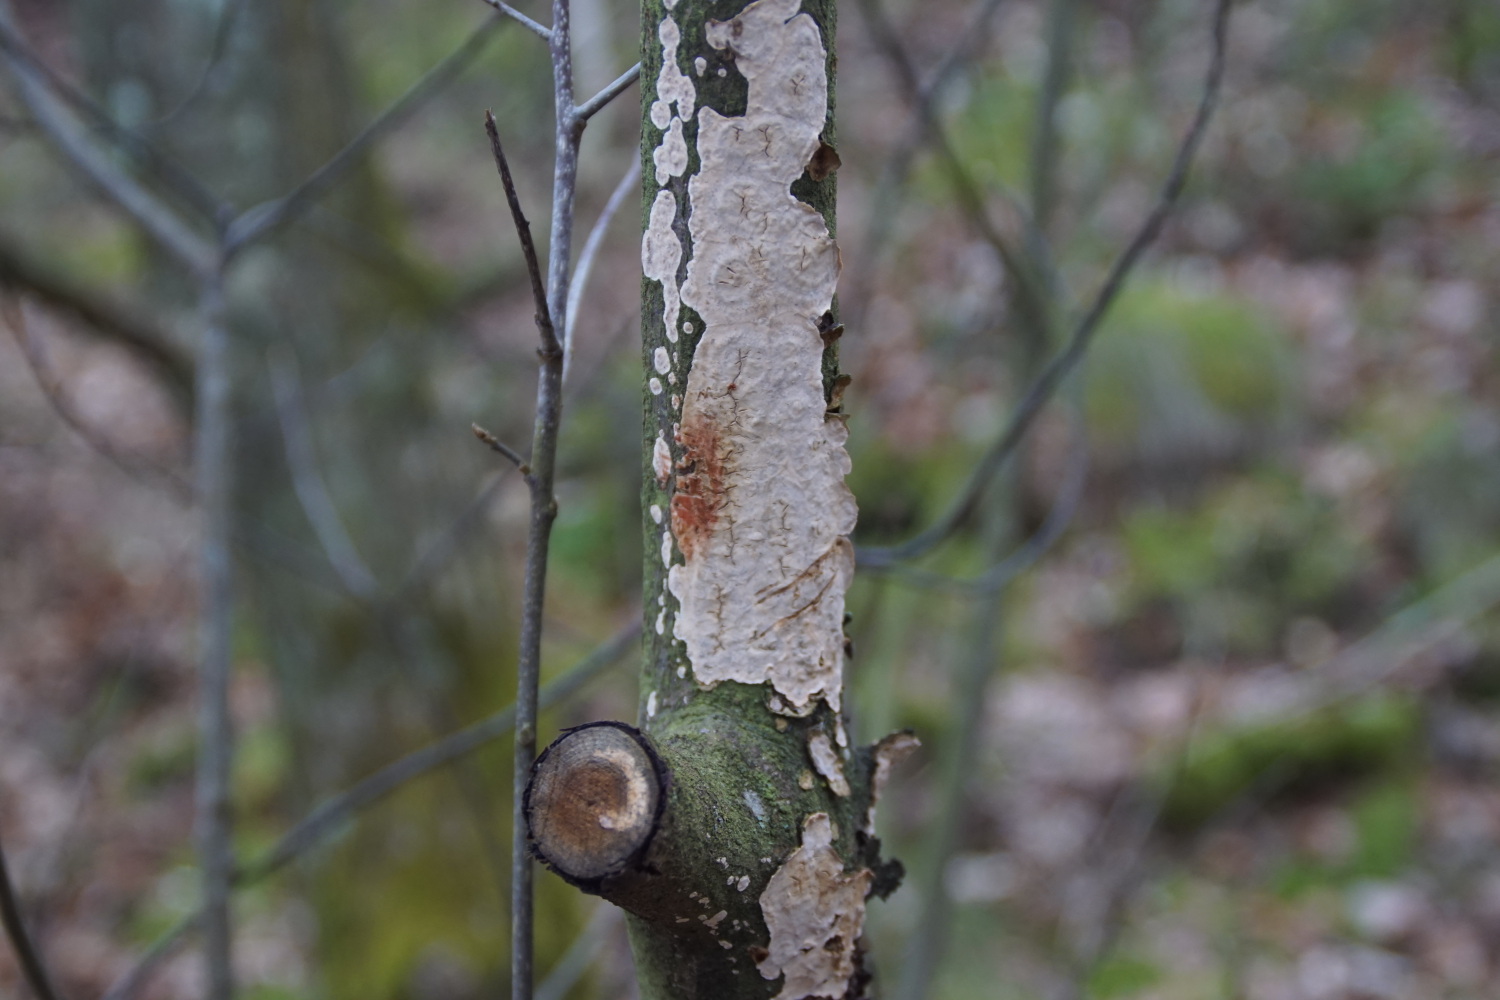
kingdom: Fungi
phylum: Basidiomycota
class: Agaricomycetes
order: Russulales
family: Stereaceae
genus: Stereum
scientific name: Stereum rugosum
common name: rynket lædersvamp
